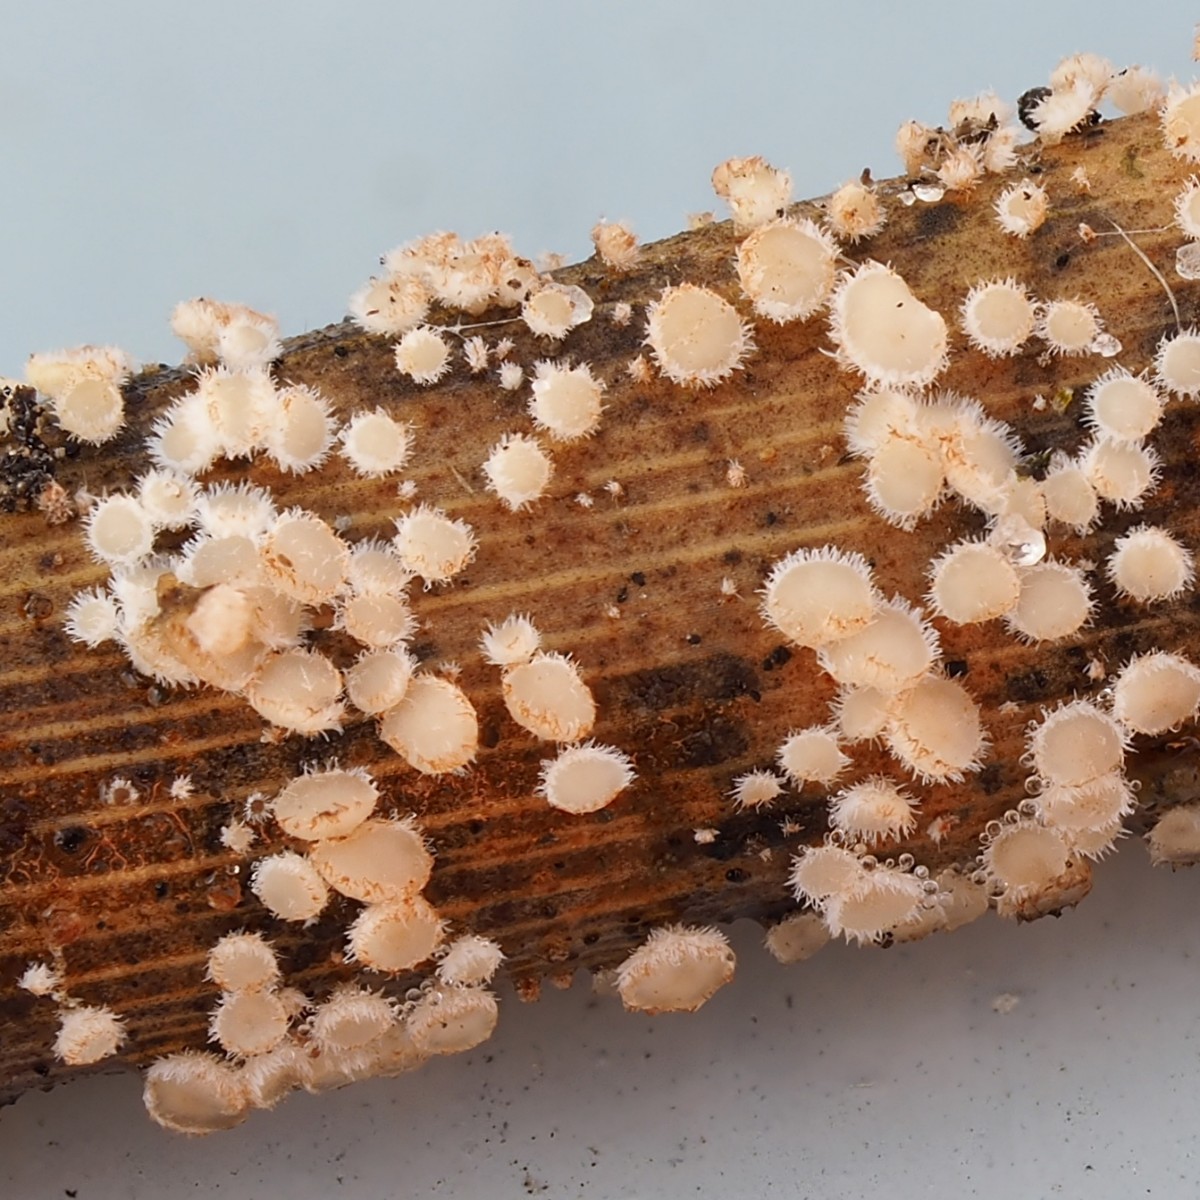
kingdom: Fungi
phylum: Ascomycota
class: Leotiomycetes
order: Helotiales
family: Lachnaceae
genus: Lachnum
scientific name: Lachnum apalum
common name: siv-frynseskive
